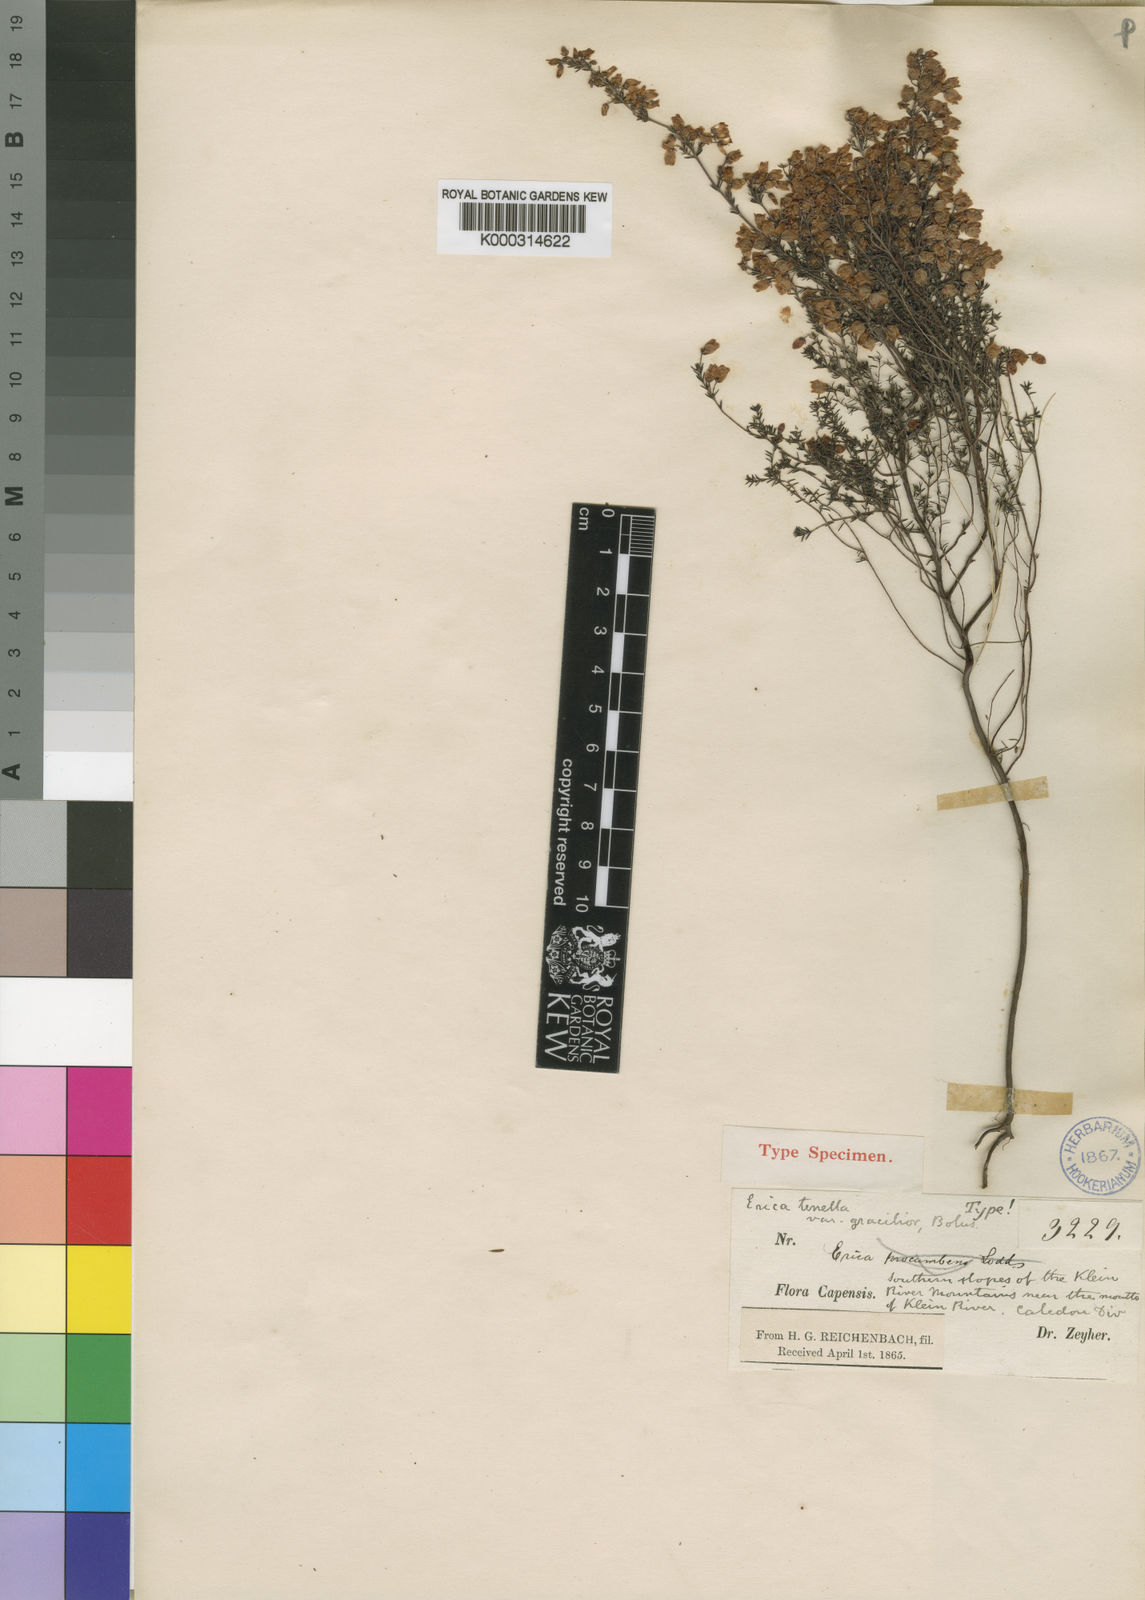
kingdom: Plantae
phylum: Tracheophyta
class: Magnoliopsida
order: Ericales
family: Ericaceae
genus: Erica
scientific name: Erica tenella
